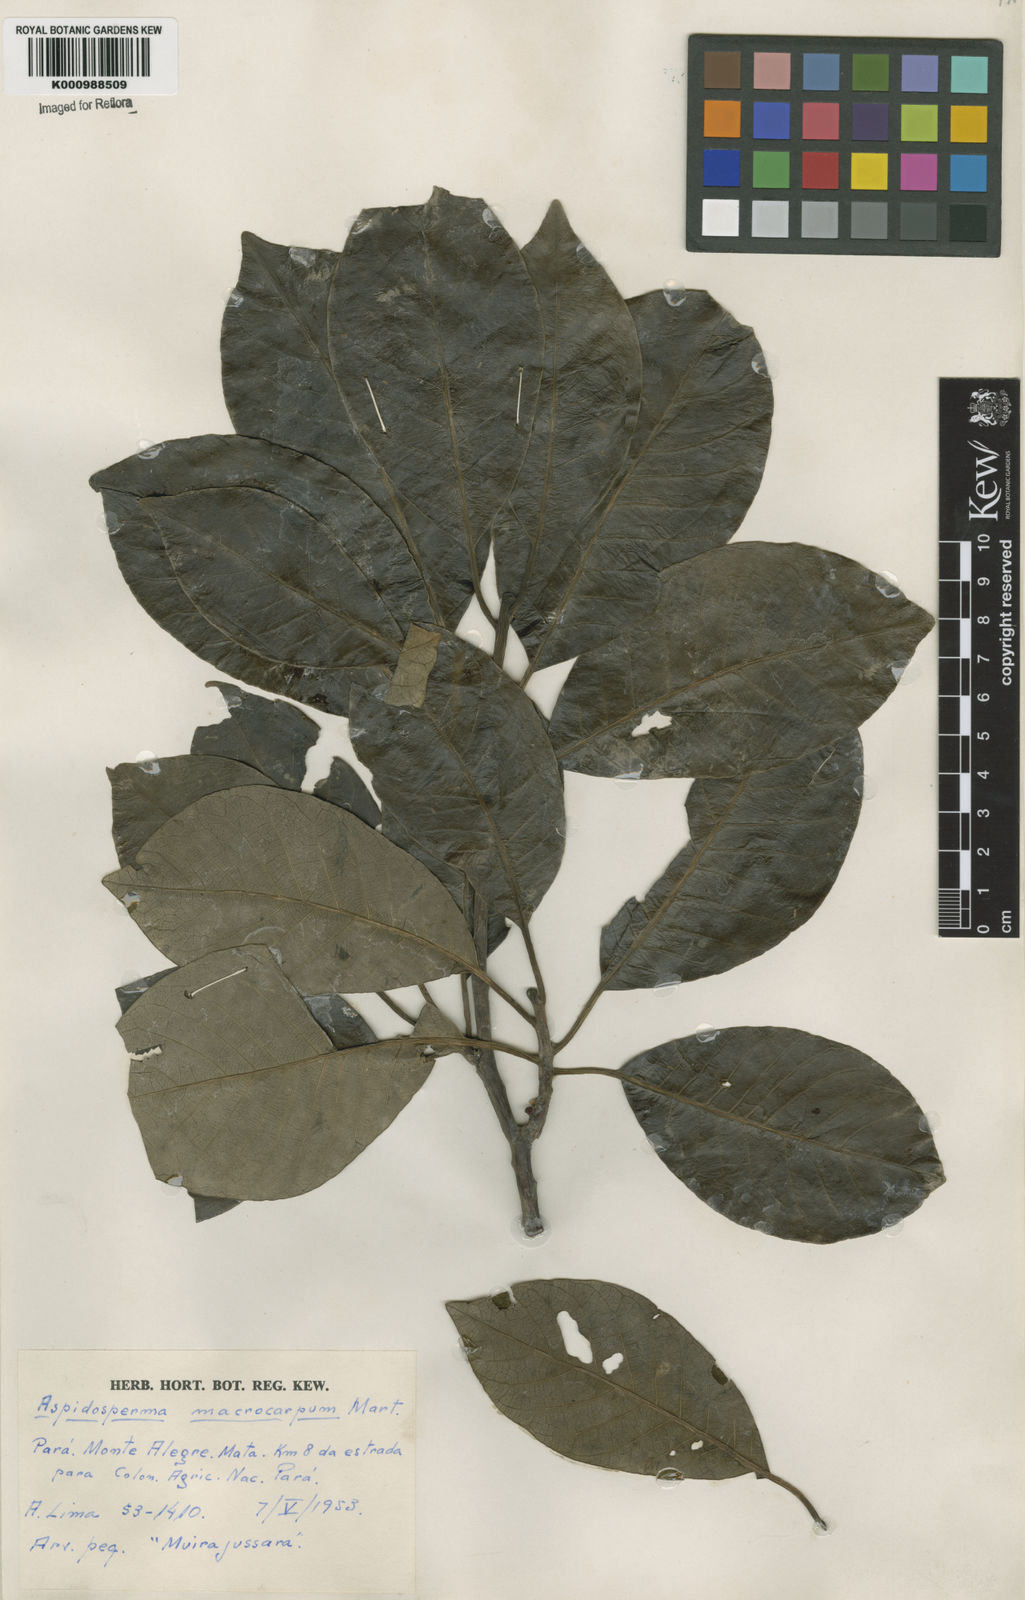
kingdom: Plantae
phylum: Tracheophyta
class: Magnoliopsida
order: Gentianales
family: Apocynaceae
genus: Aspidosperma
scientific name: Aspidosperma macrocarpon
